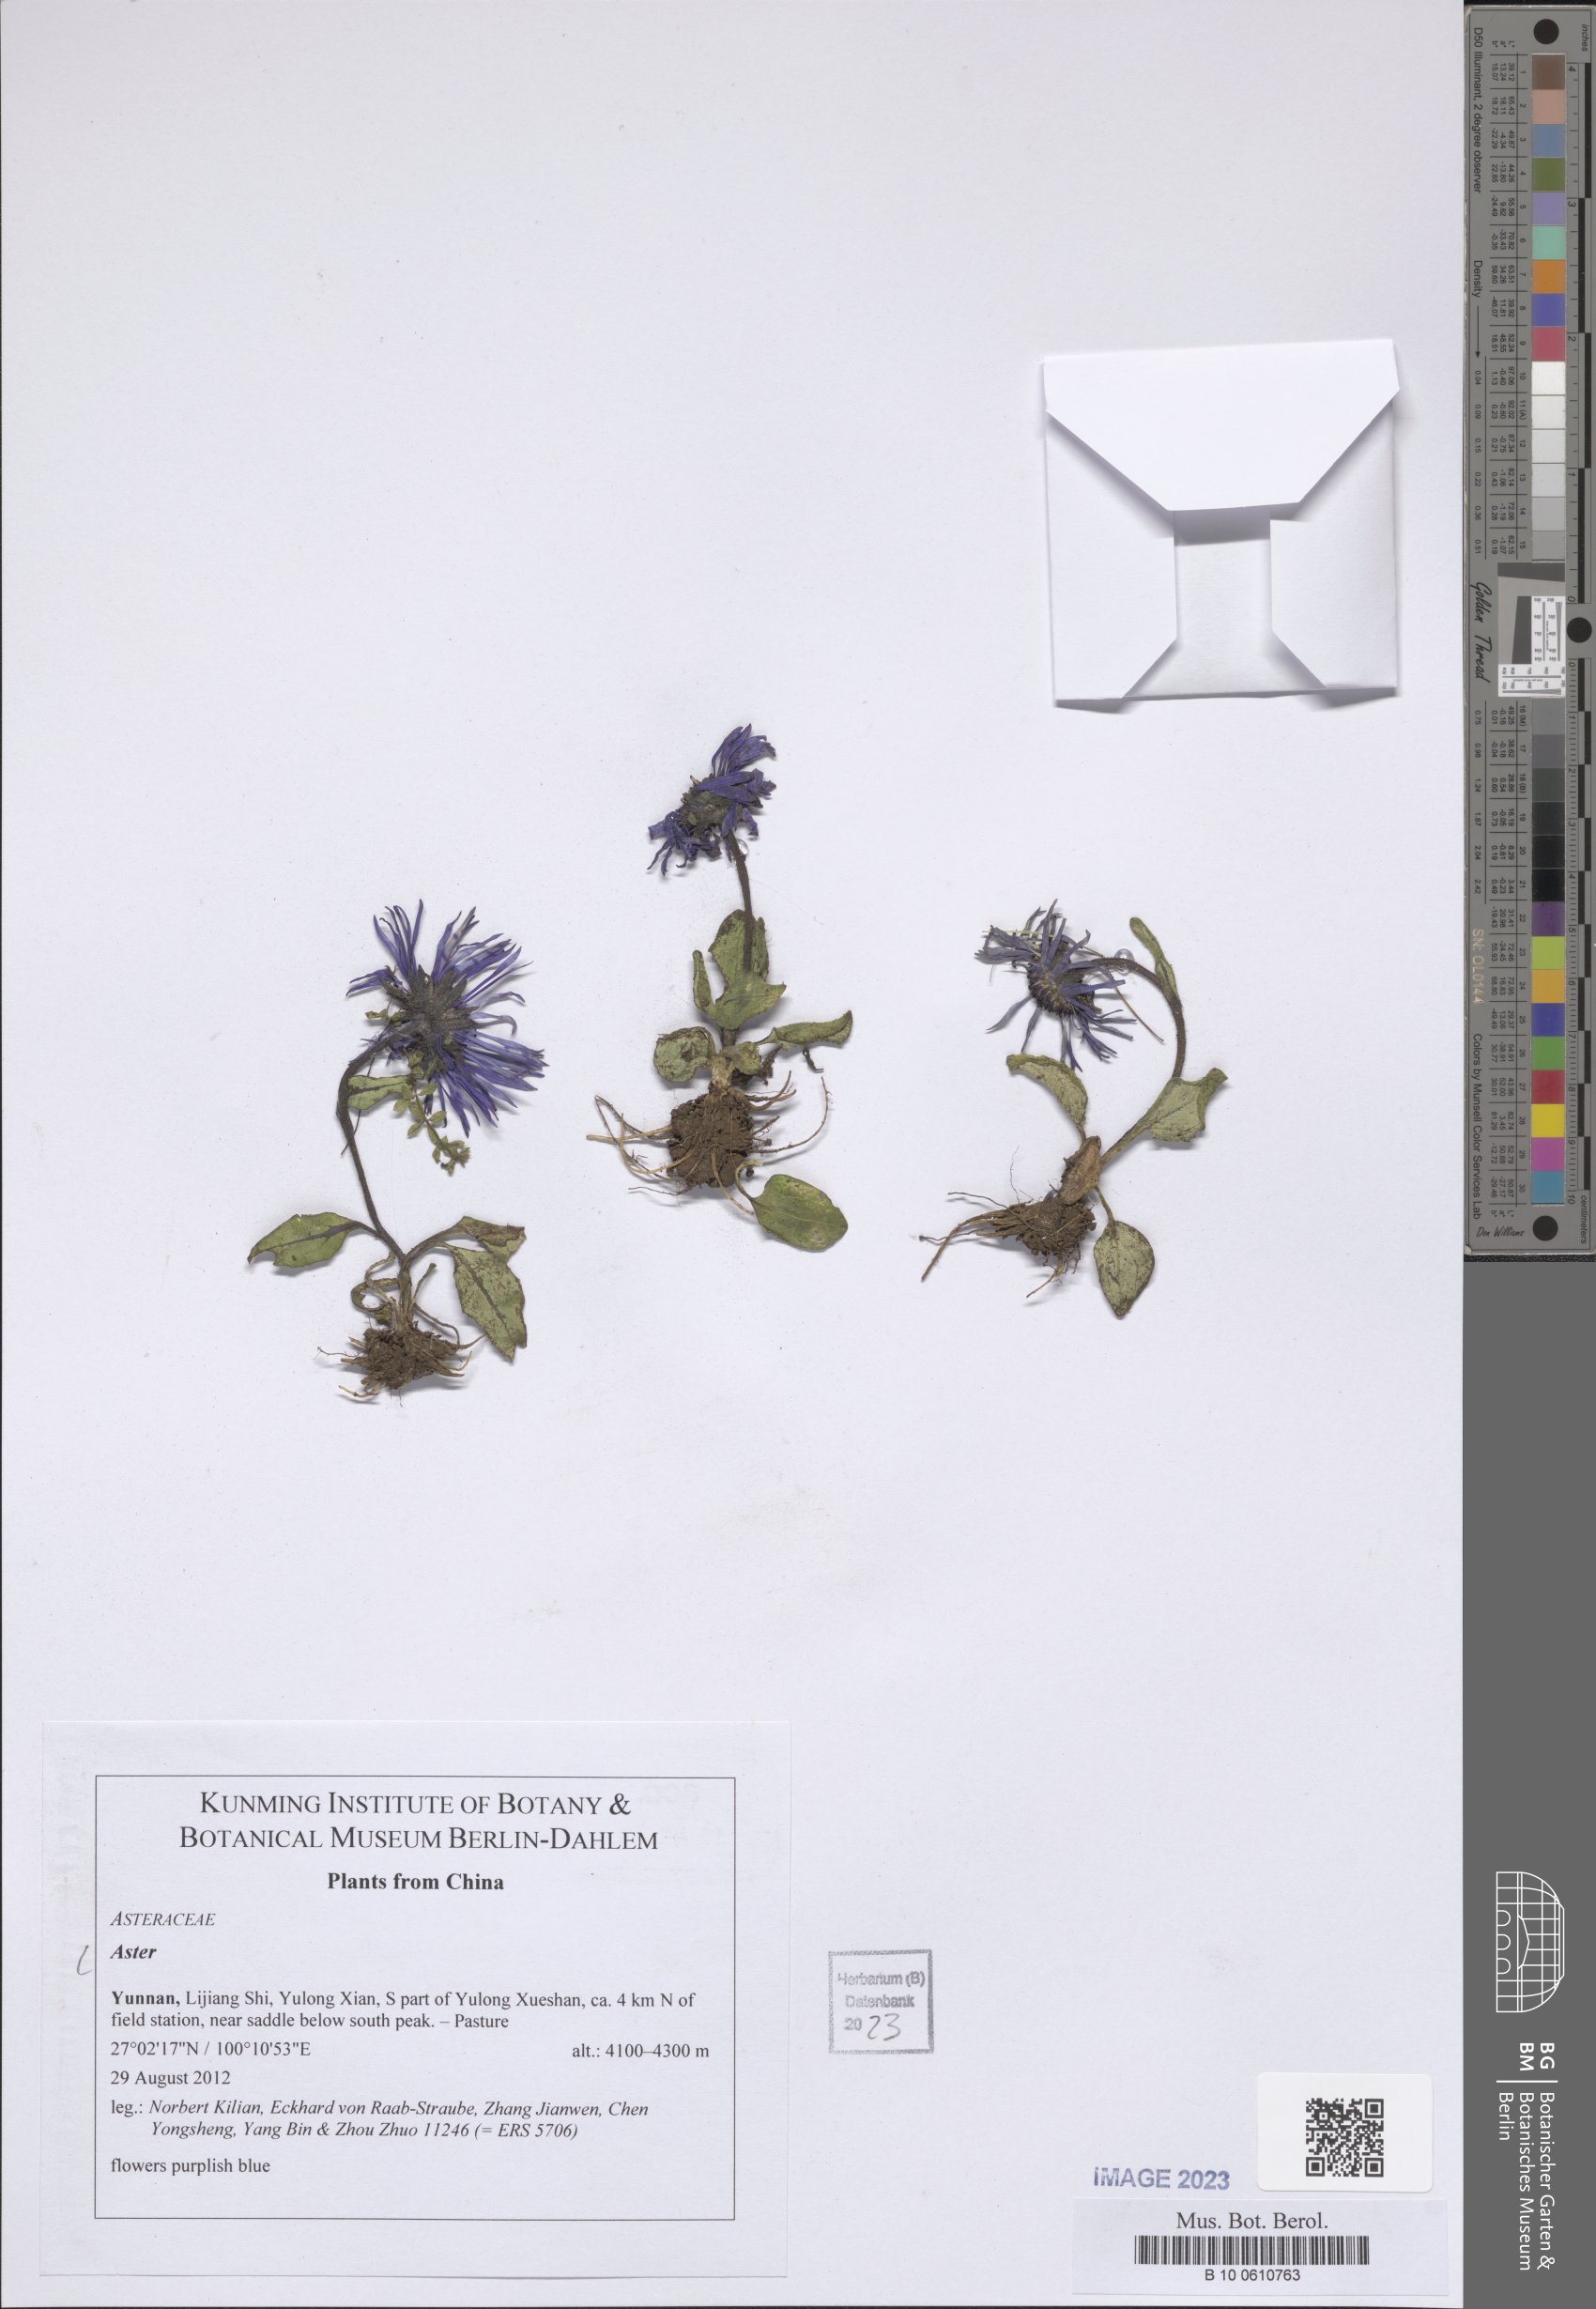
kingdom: Plantae
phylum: Tracheophyta
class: Magnoliopsida
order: Asterales
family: Asteraceae
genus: Aster
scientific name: Aster
